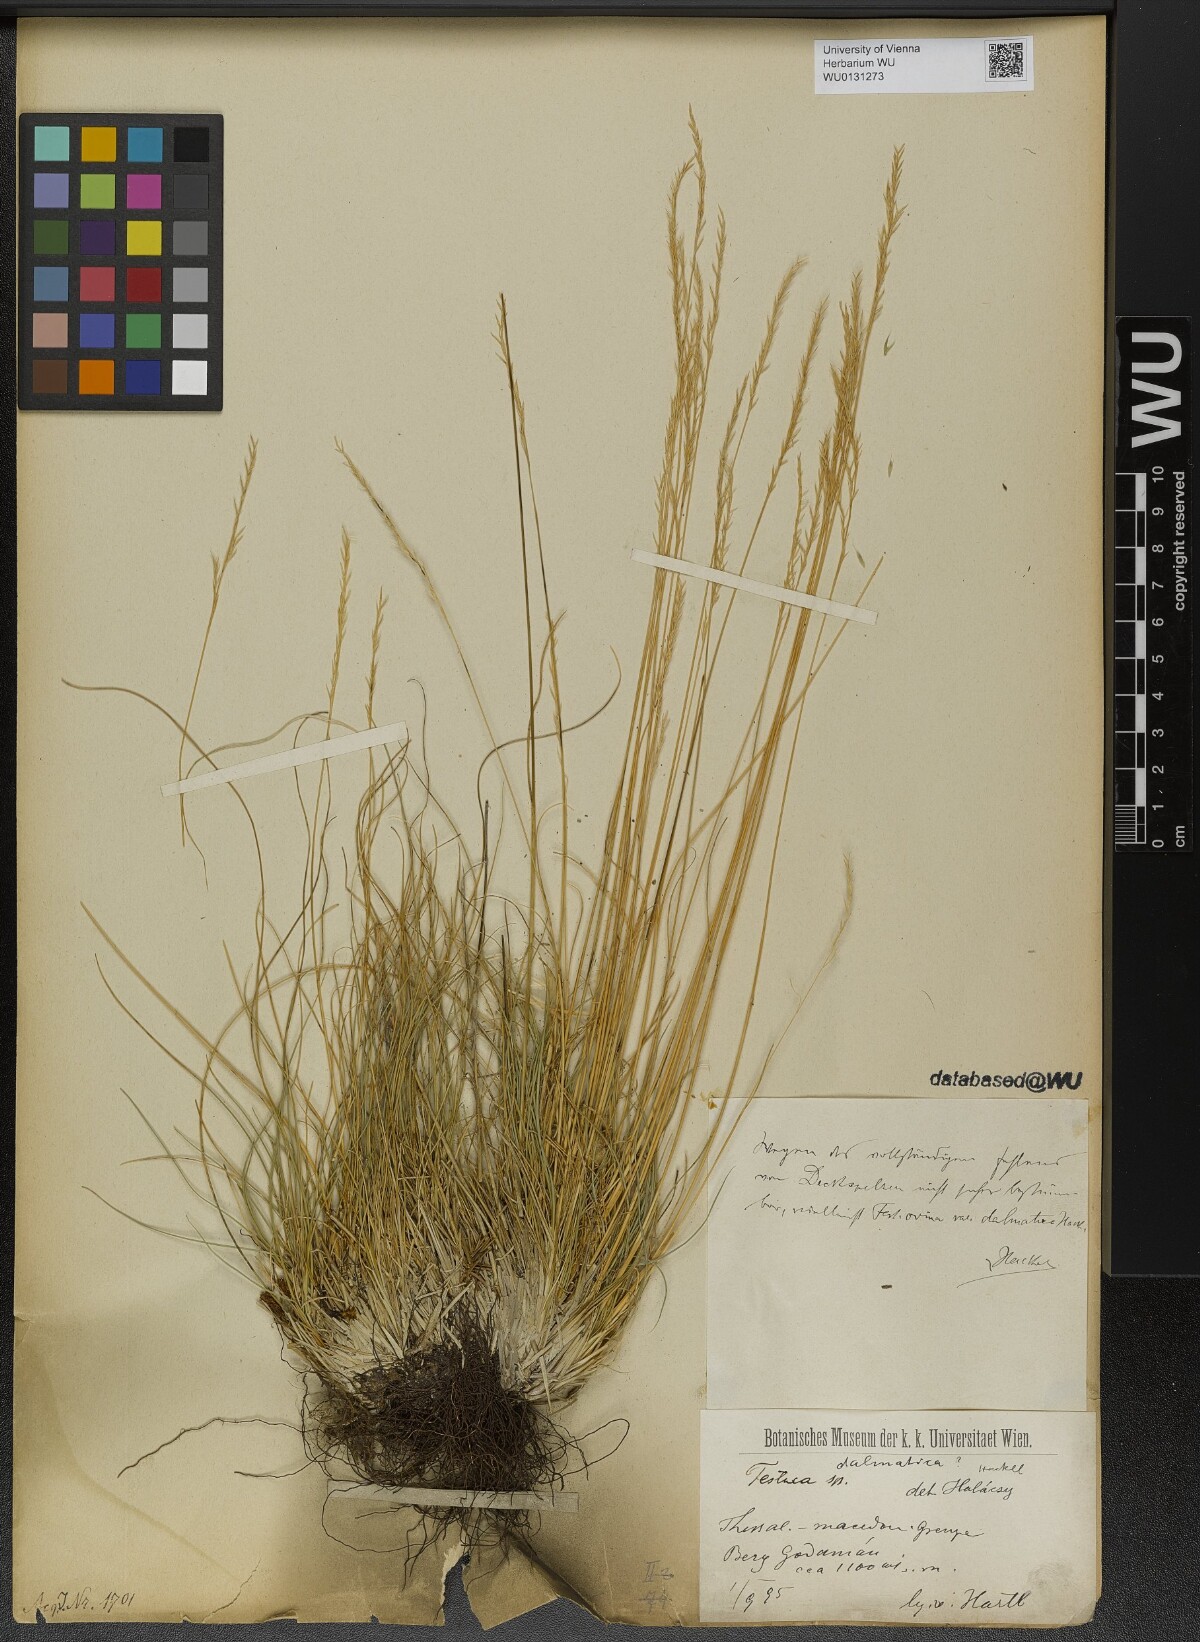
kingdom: Plantae
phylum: Tracheophyta
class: Liliopsida
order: Poales
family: Poaceae
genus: Festuca
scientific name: Festuca dalmatica
